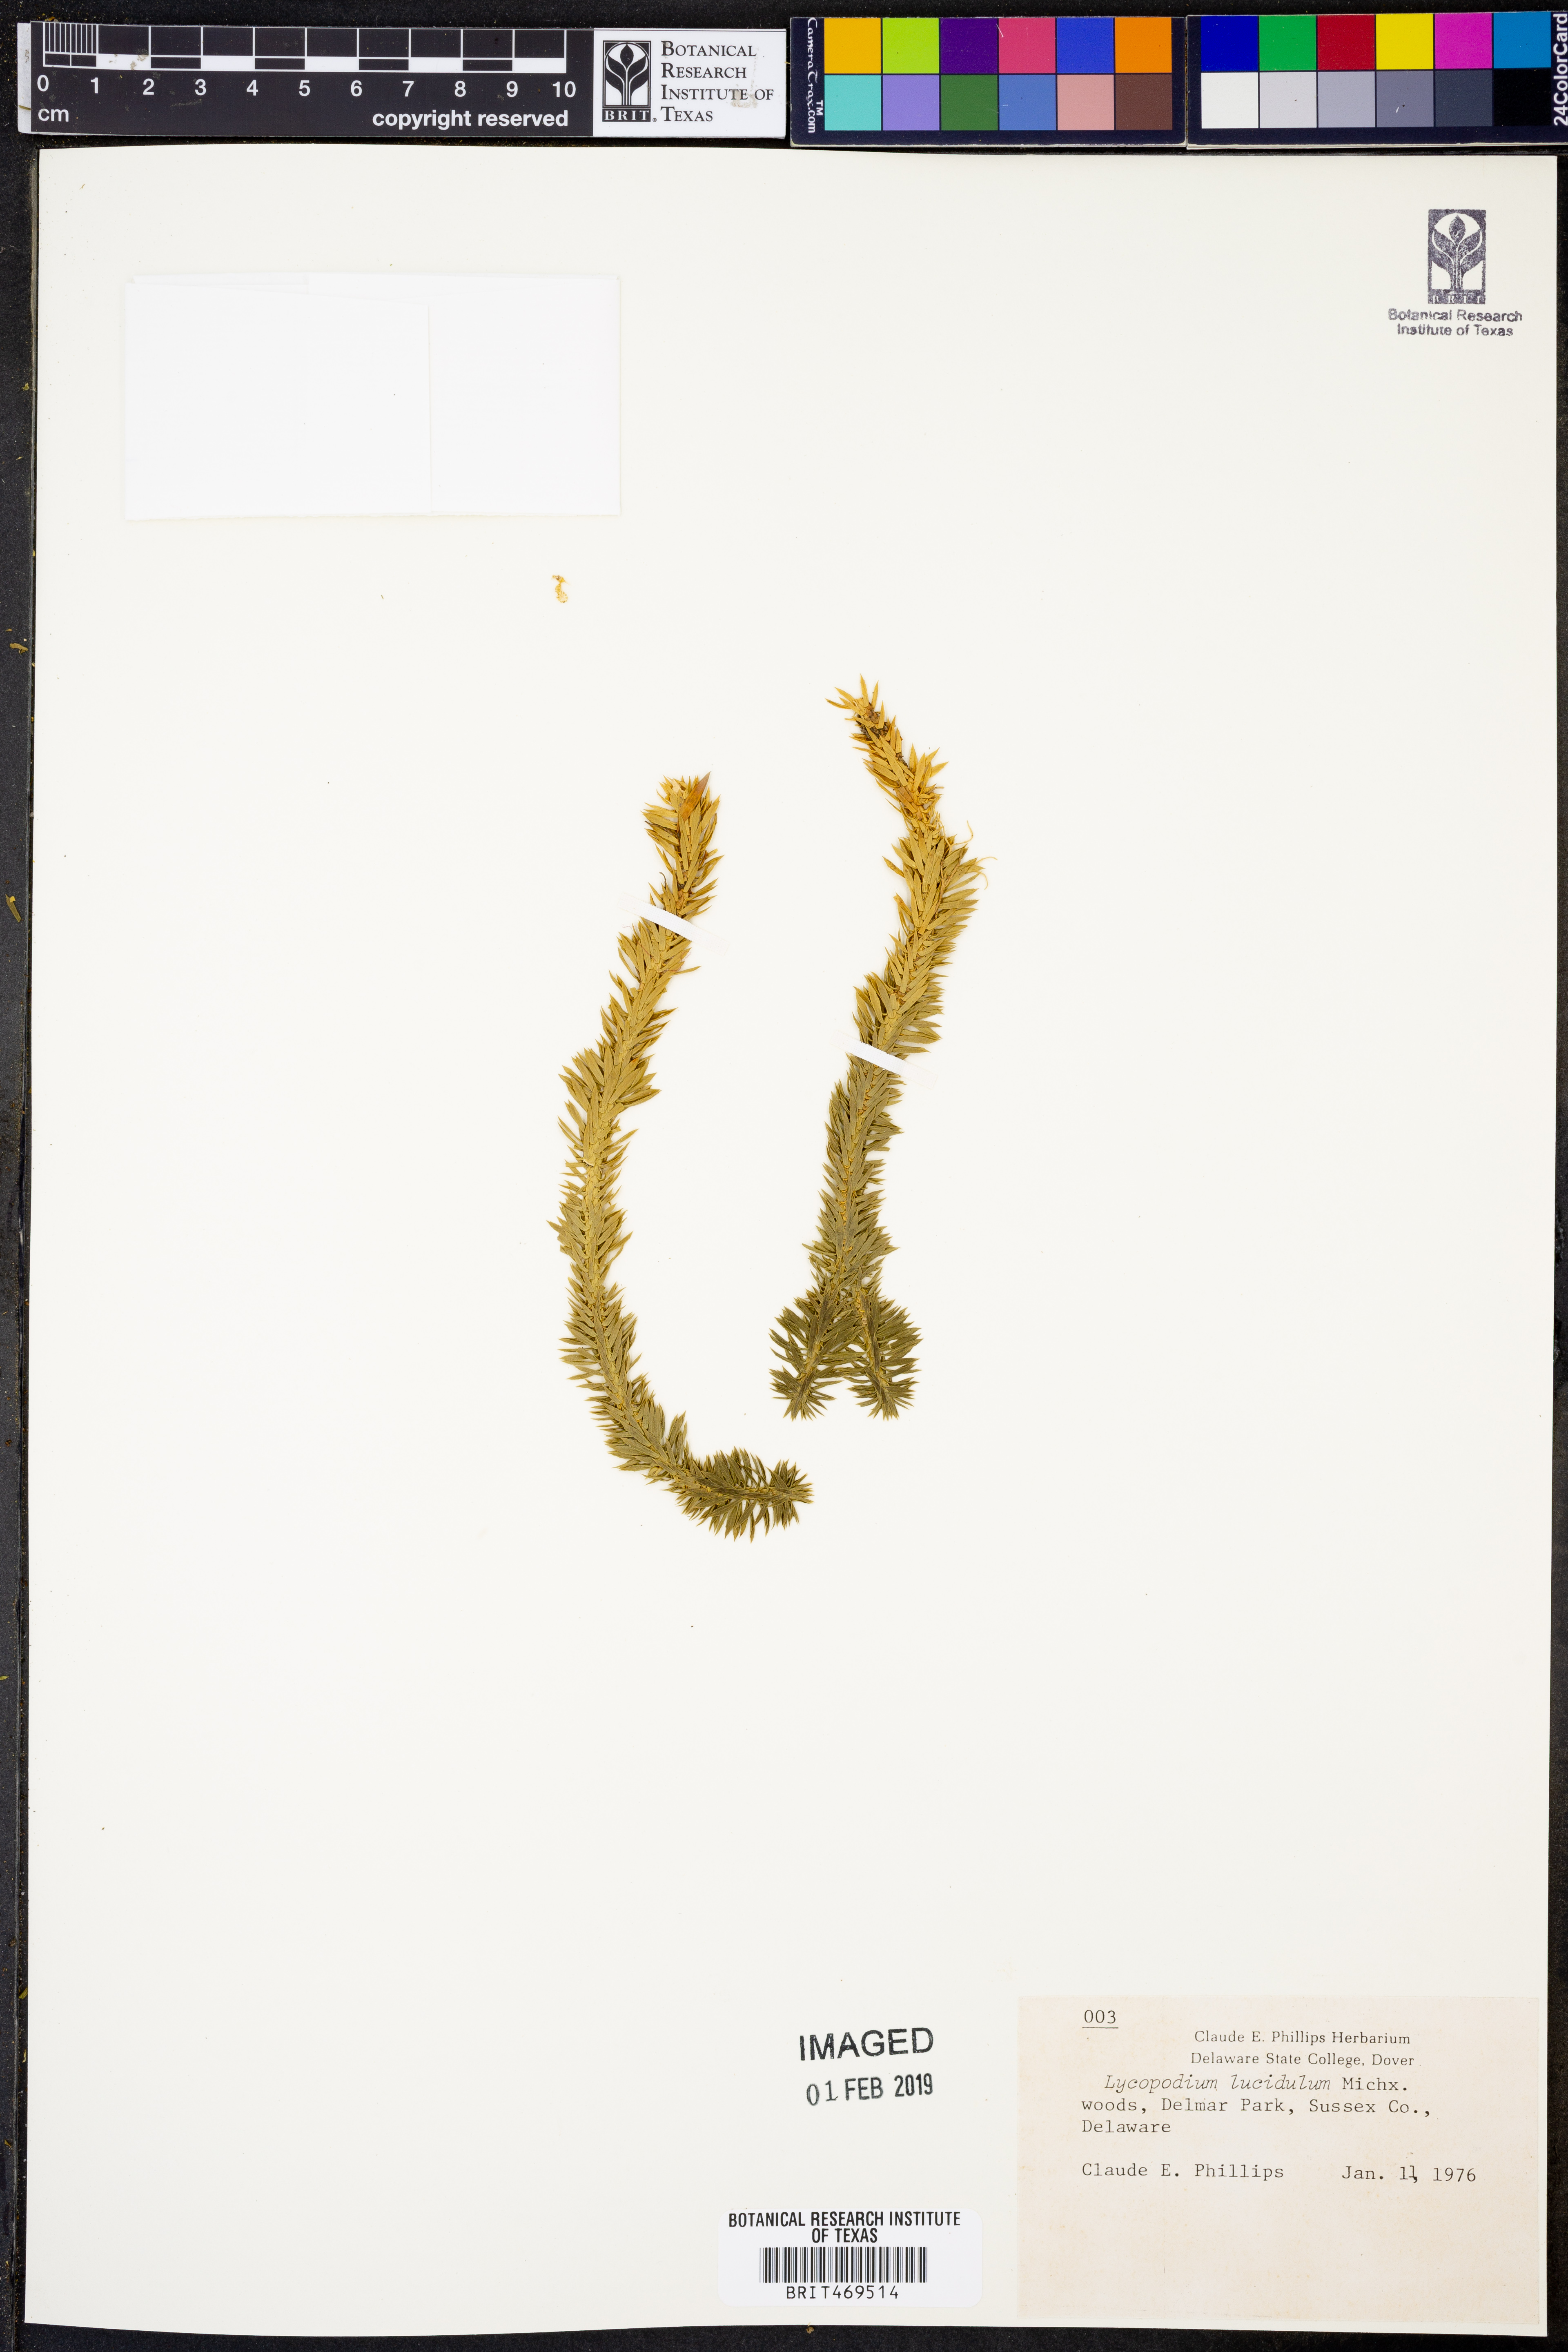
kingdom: Plantae
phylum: Tracheophyta
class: Lycopodiopsida
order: Lycopodiales
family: Lycopodiaceae
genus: Huperzia
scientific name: Huperzia lucidula
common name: Shining clubmoss
